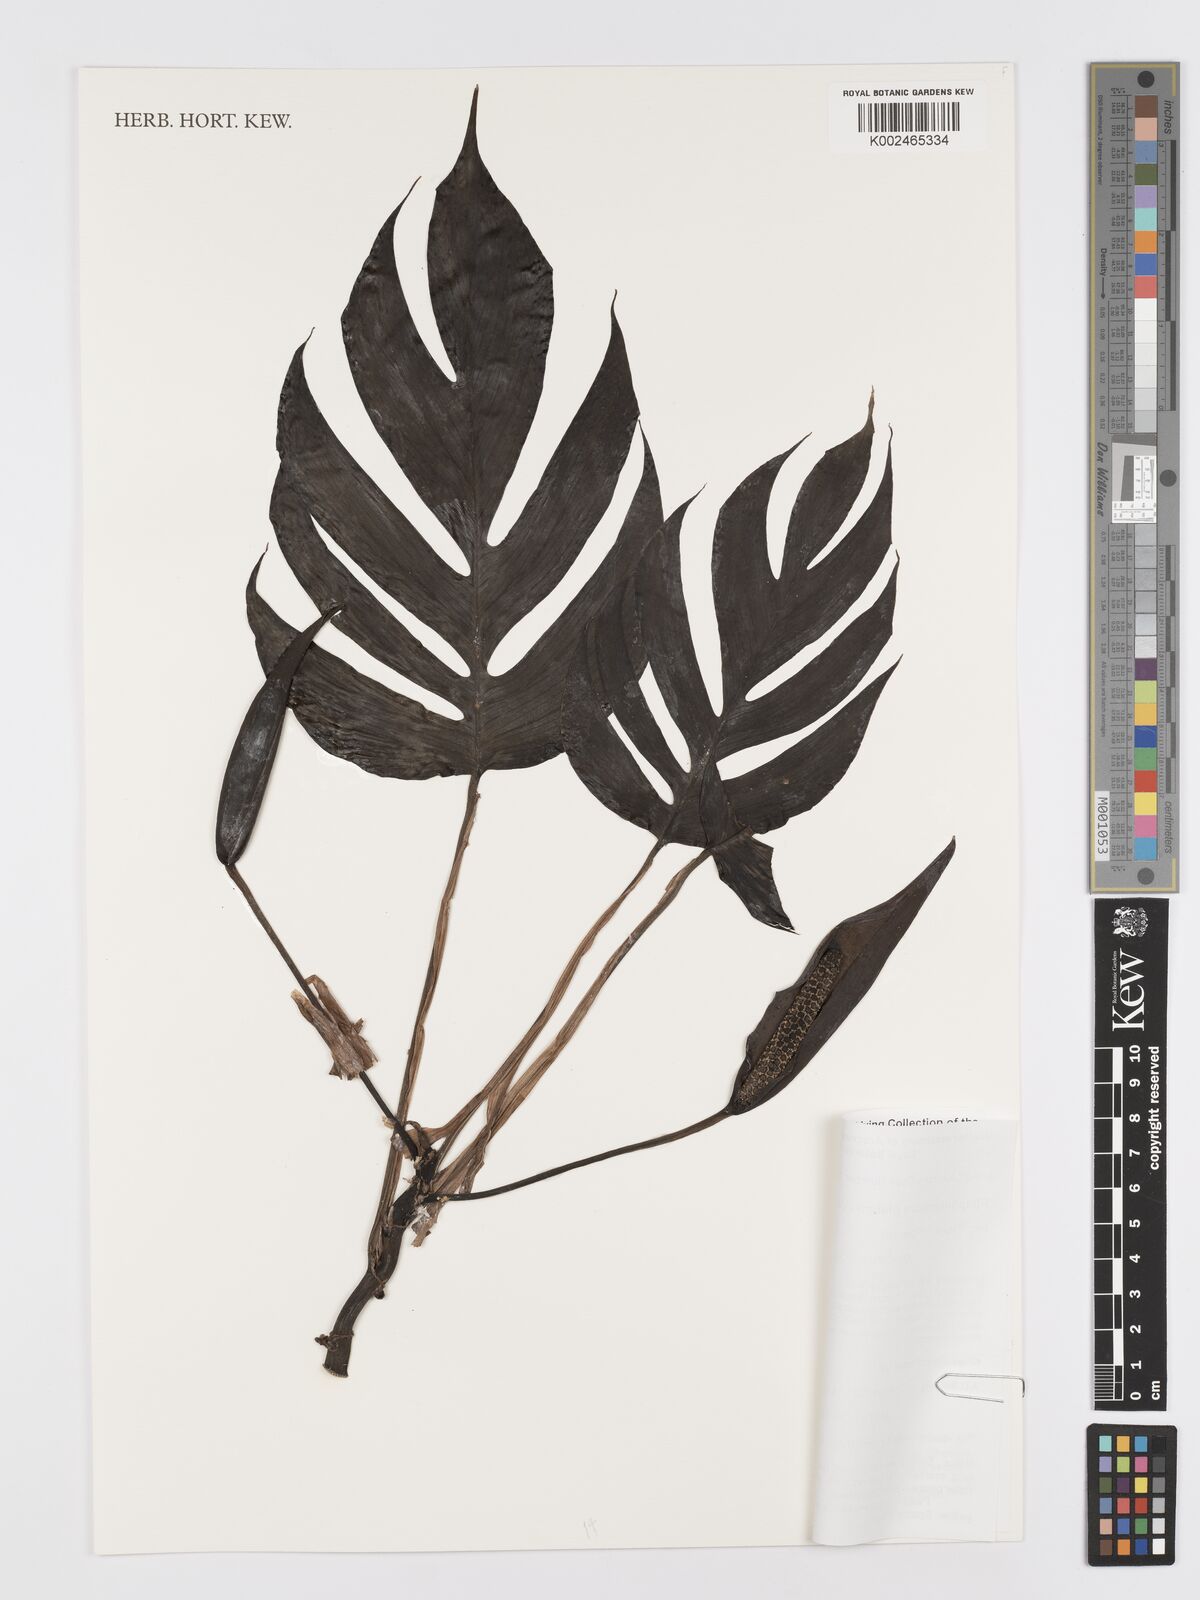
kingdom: Plantae
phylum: Tracheophyta
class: Liliopsida
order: Alismatales
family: Araceae
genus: Rhaphidophora
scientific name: Rhaphidophora glauca
